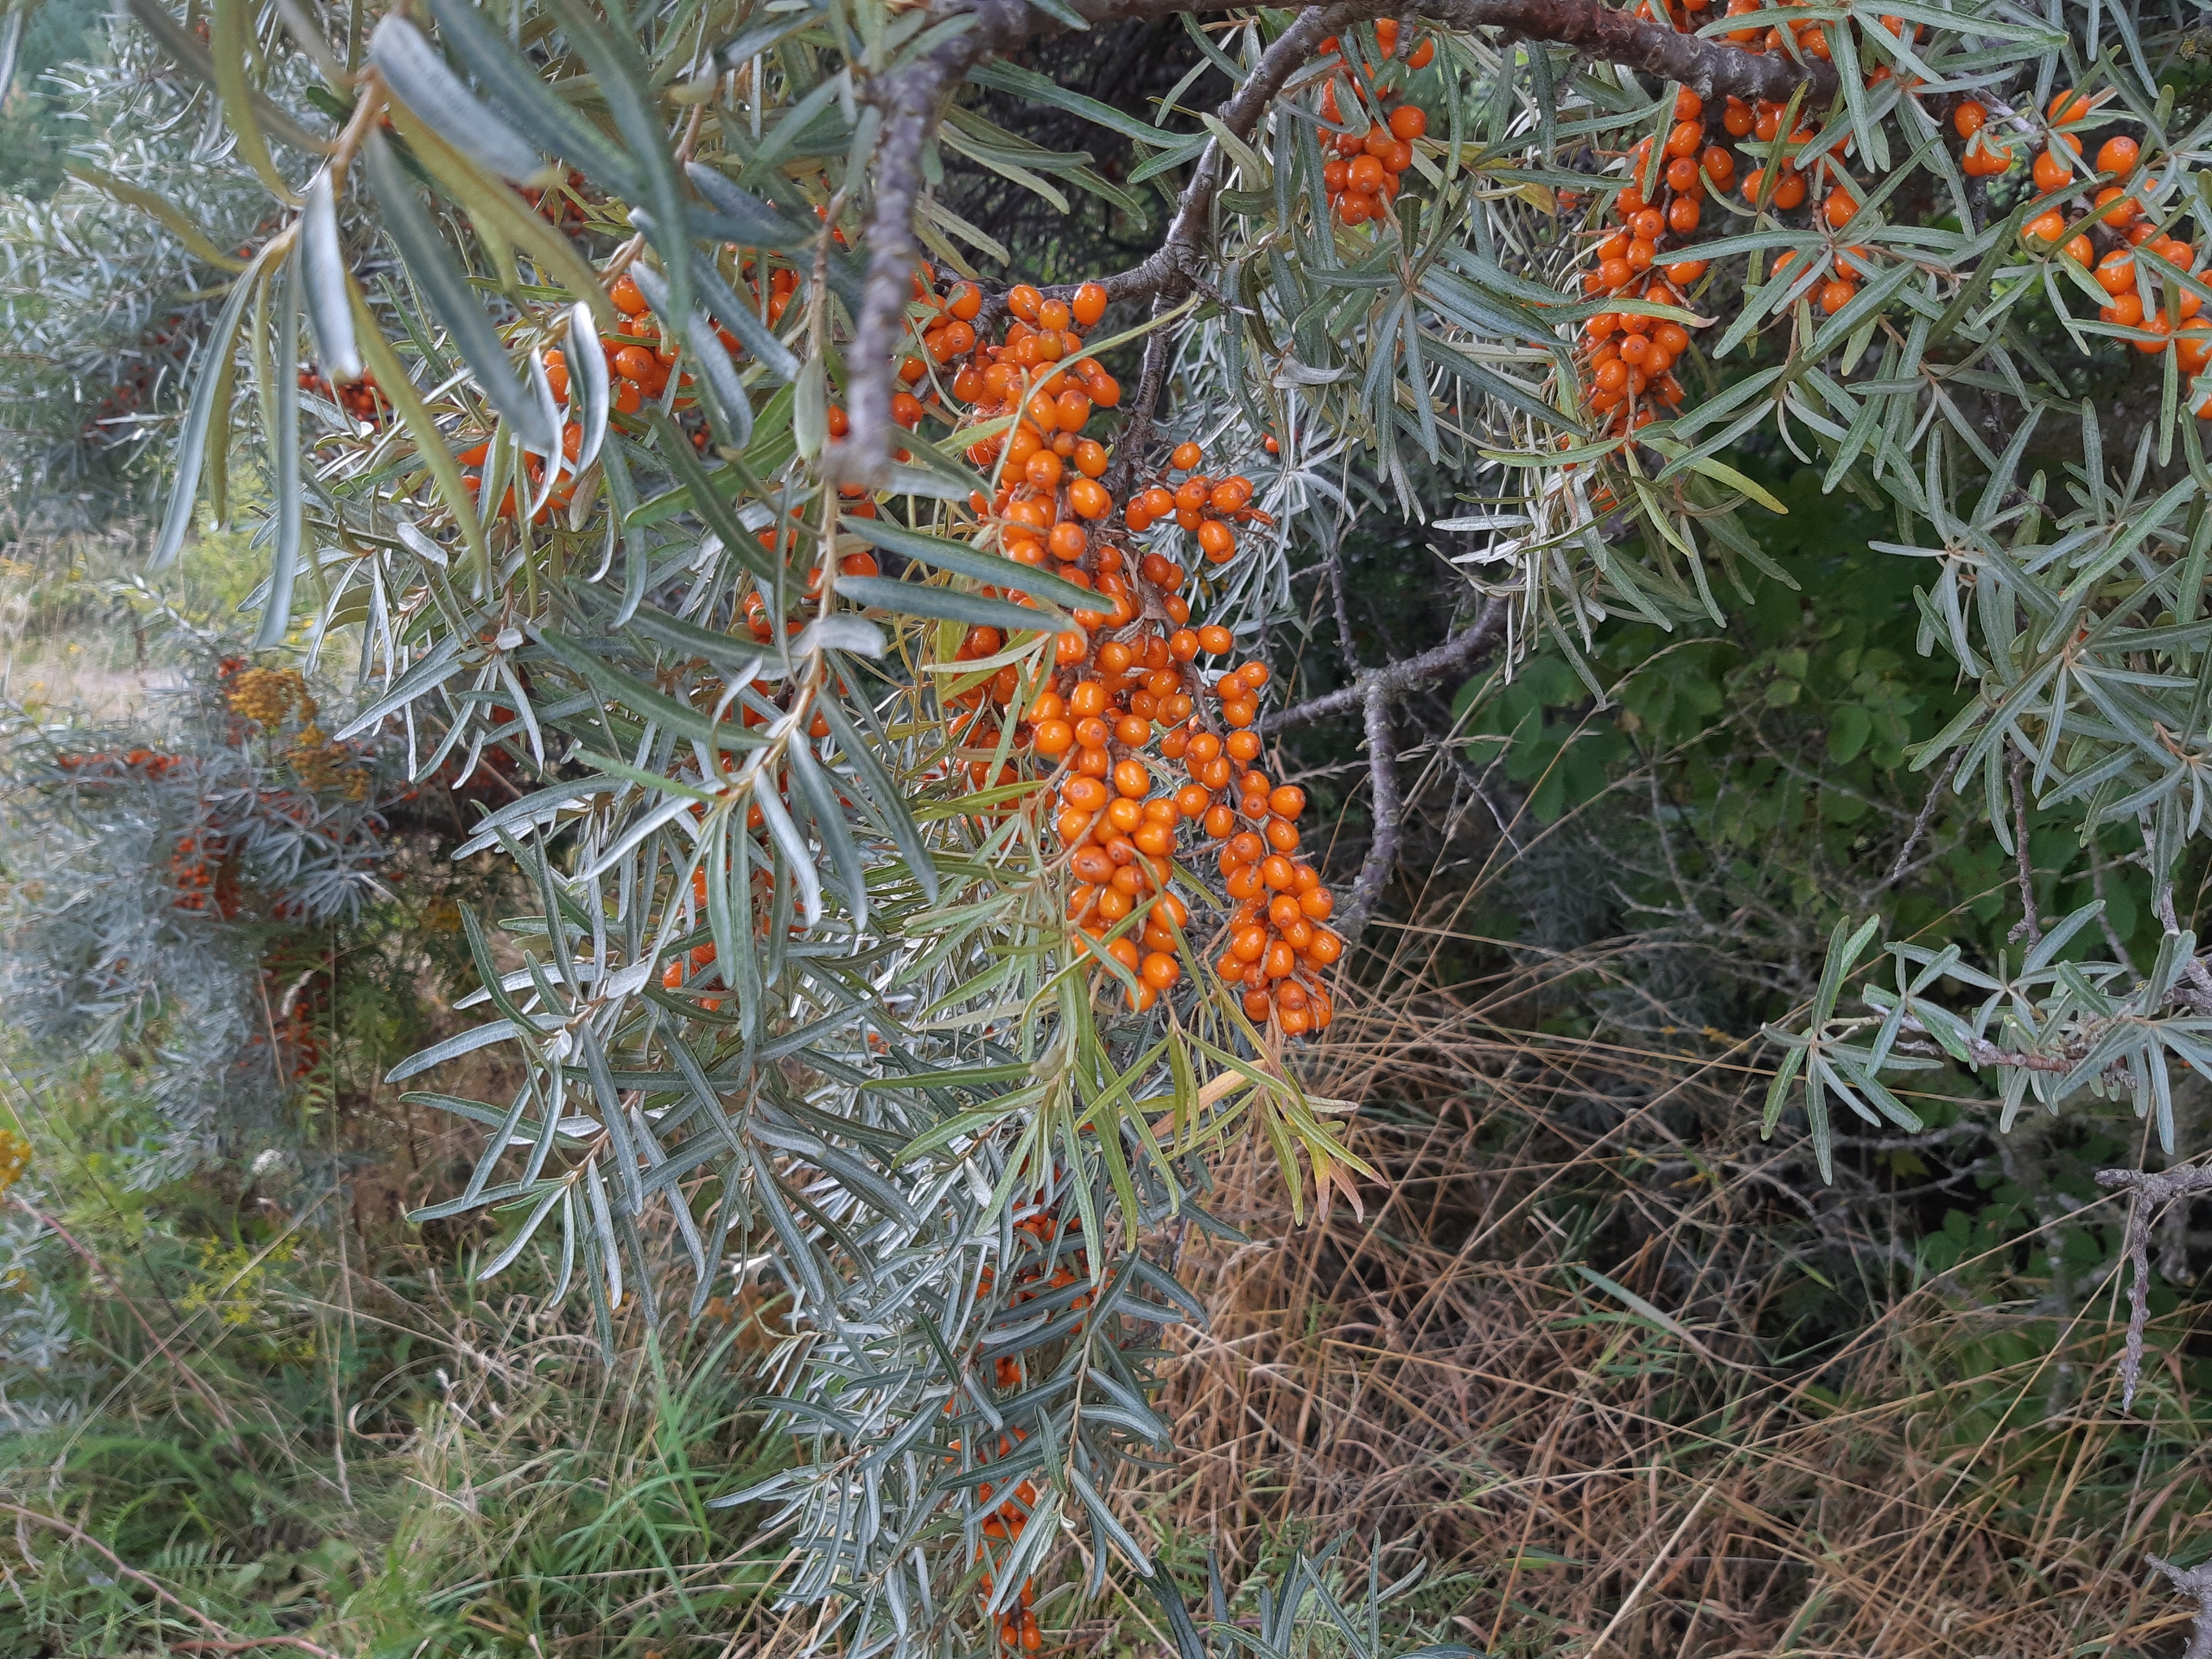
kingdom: Plantae
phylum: Tracheophyta
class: Magnoliopsida
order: Rosales
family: Elaeagnaceae
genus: Hippophae
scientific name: Hippophae rhamnoides
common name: Havtorn
